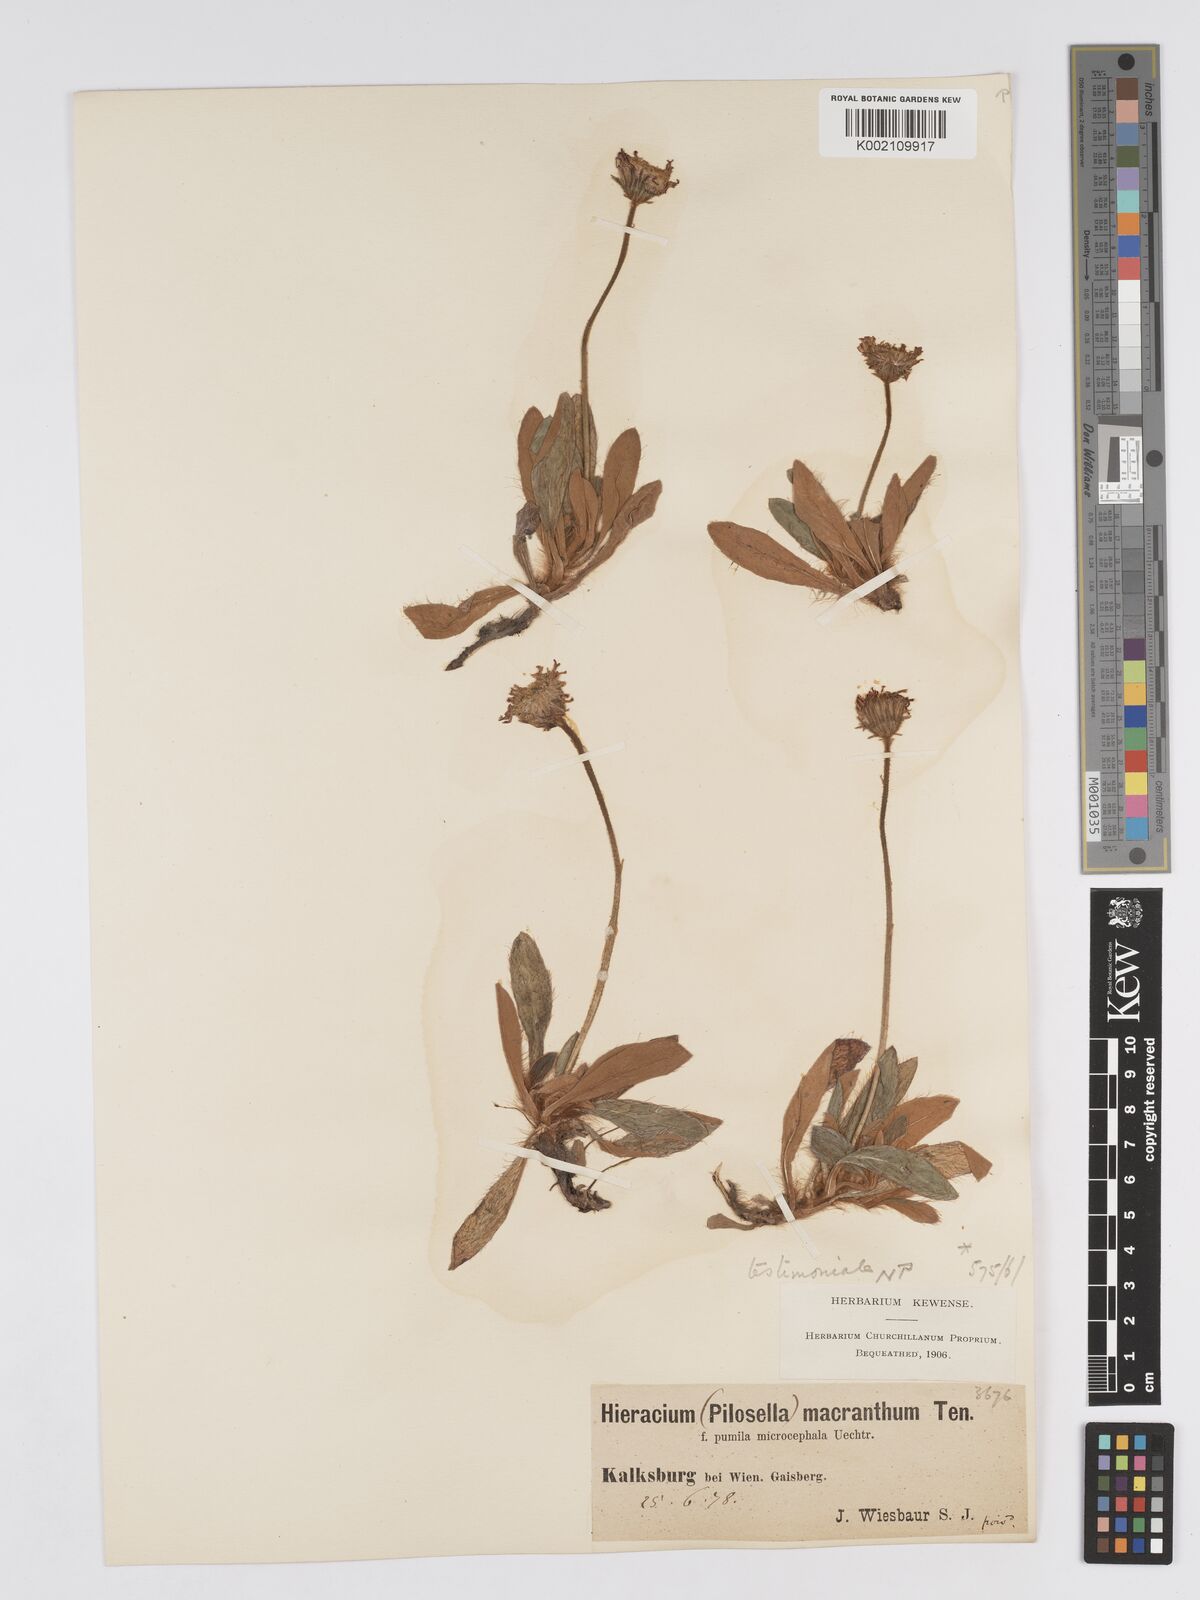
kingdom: Plantae
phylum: Tracheophyta
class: Magnoliopsida
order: Asterales
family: Asteraceae
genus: Pilosella
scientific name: Pilosella leucopsilon
